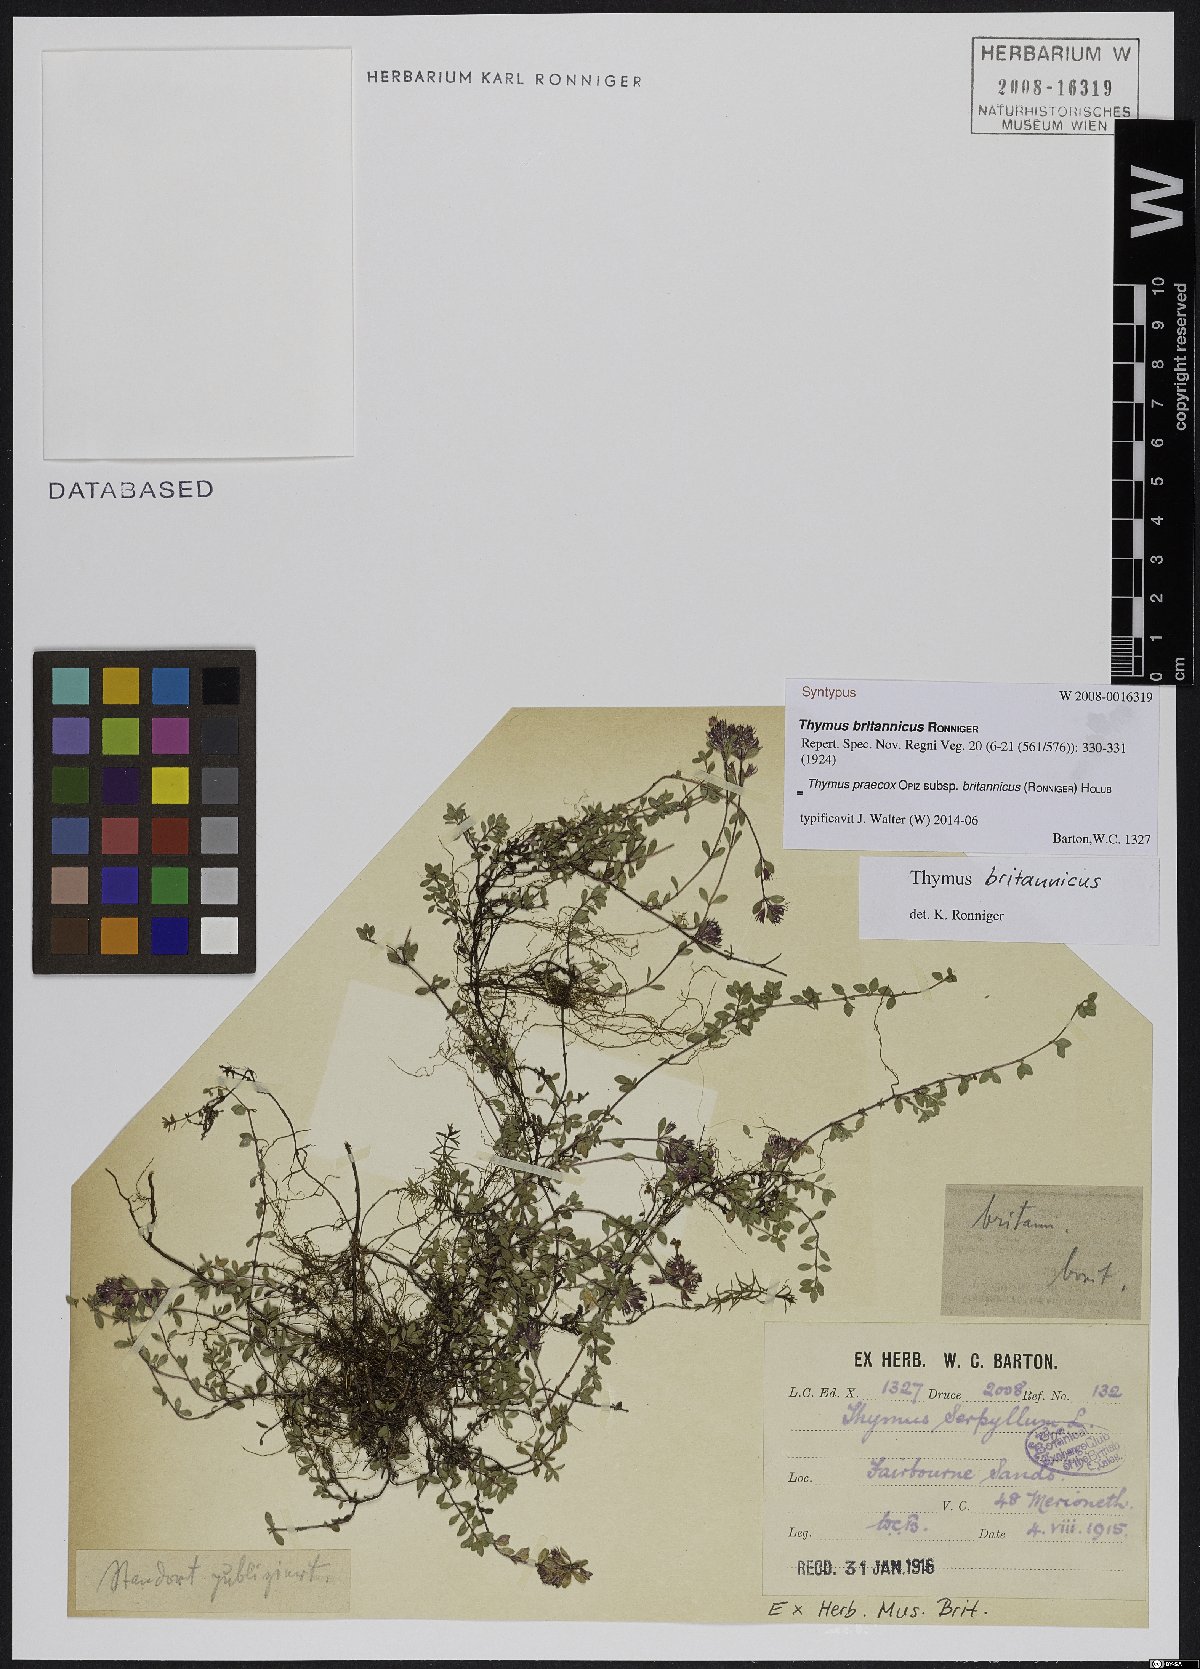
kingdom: Plantae
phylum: Tracheophyta
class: Magnoliopsida
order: Lamiales
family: Lamiaceae
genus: Thymus
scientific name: Thymus praecox
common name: Wild thyme
